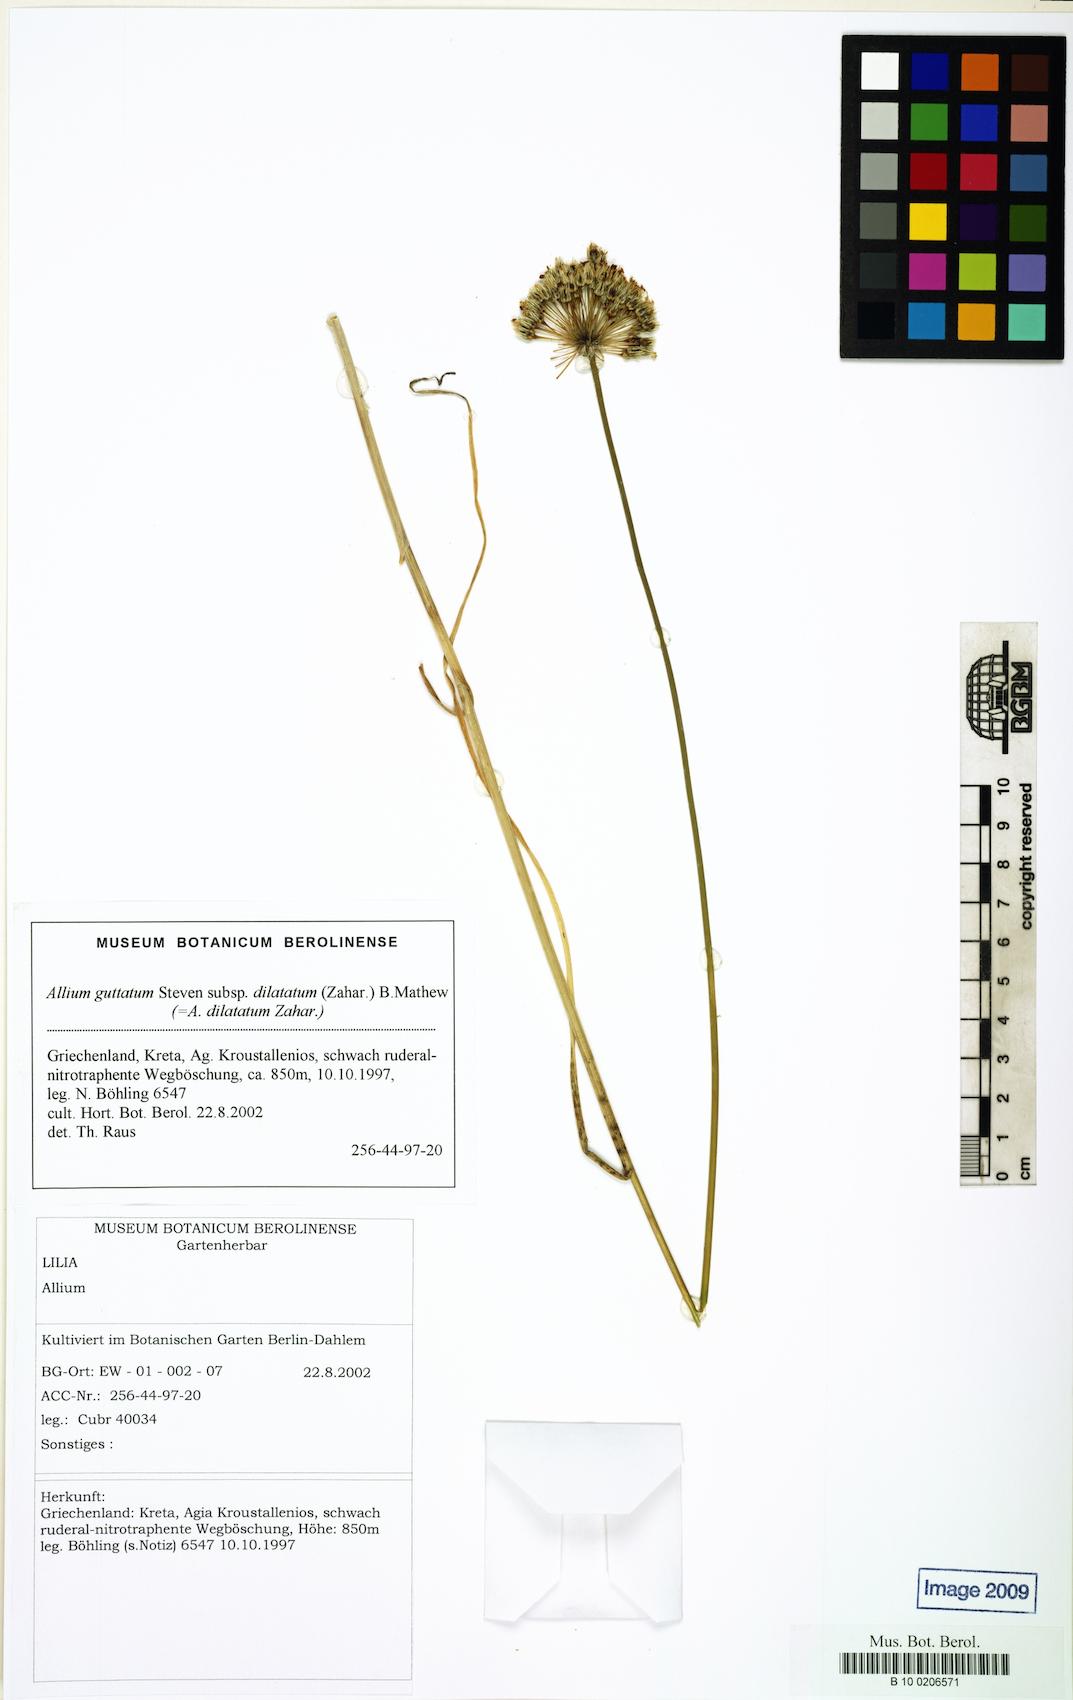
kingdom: Plantae
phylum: Tracheophyta
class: Liliopsida
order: Asparagales
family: Amaryllidaceae
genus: Allium
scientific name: Allium dilatatum
